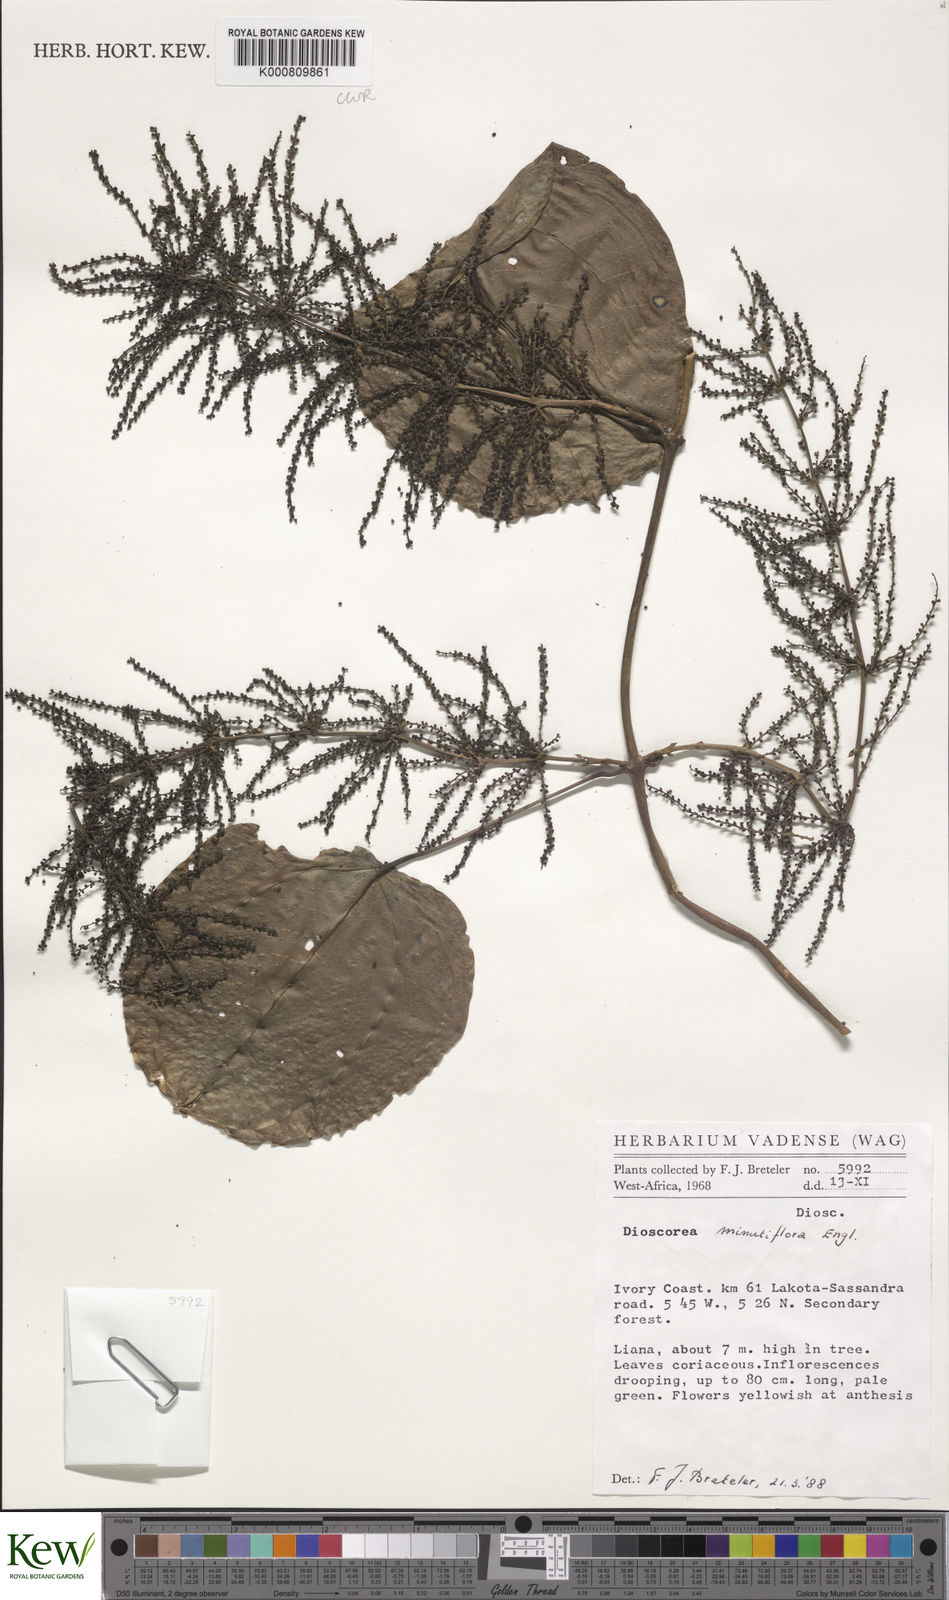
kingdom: Plantae
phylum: Tracheophyta
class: Liliopsida
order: Dioscoreales
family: Dioscoreaceae
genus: Dioscorea
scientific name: Dioscorea minutiflora
